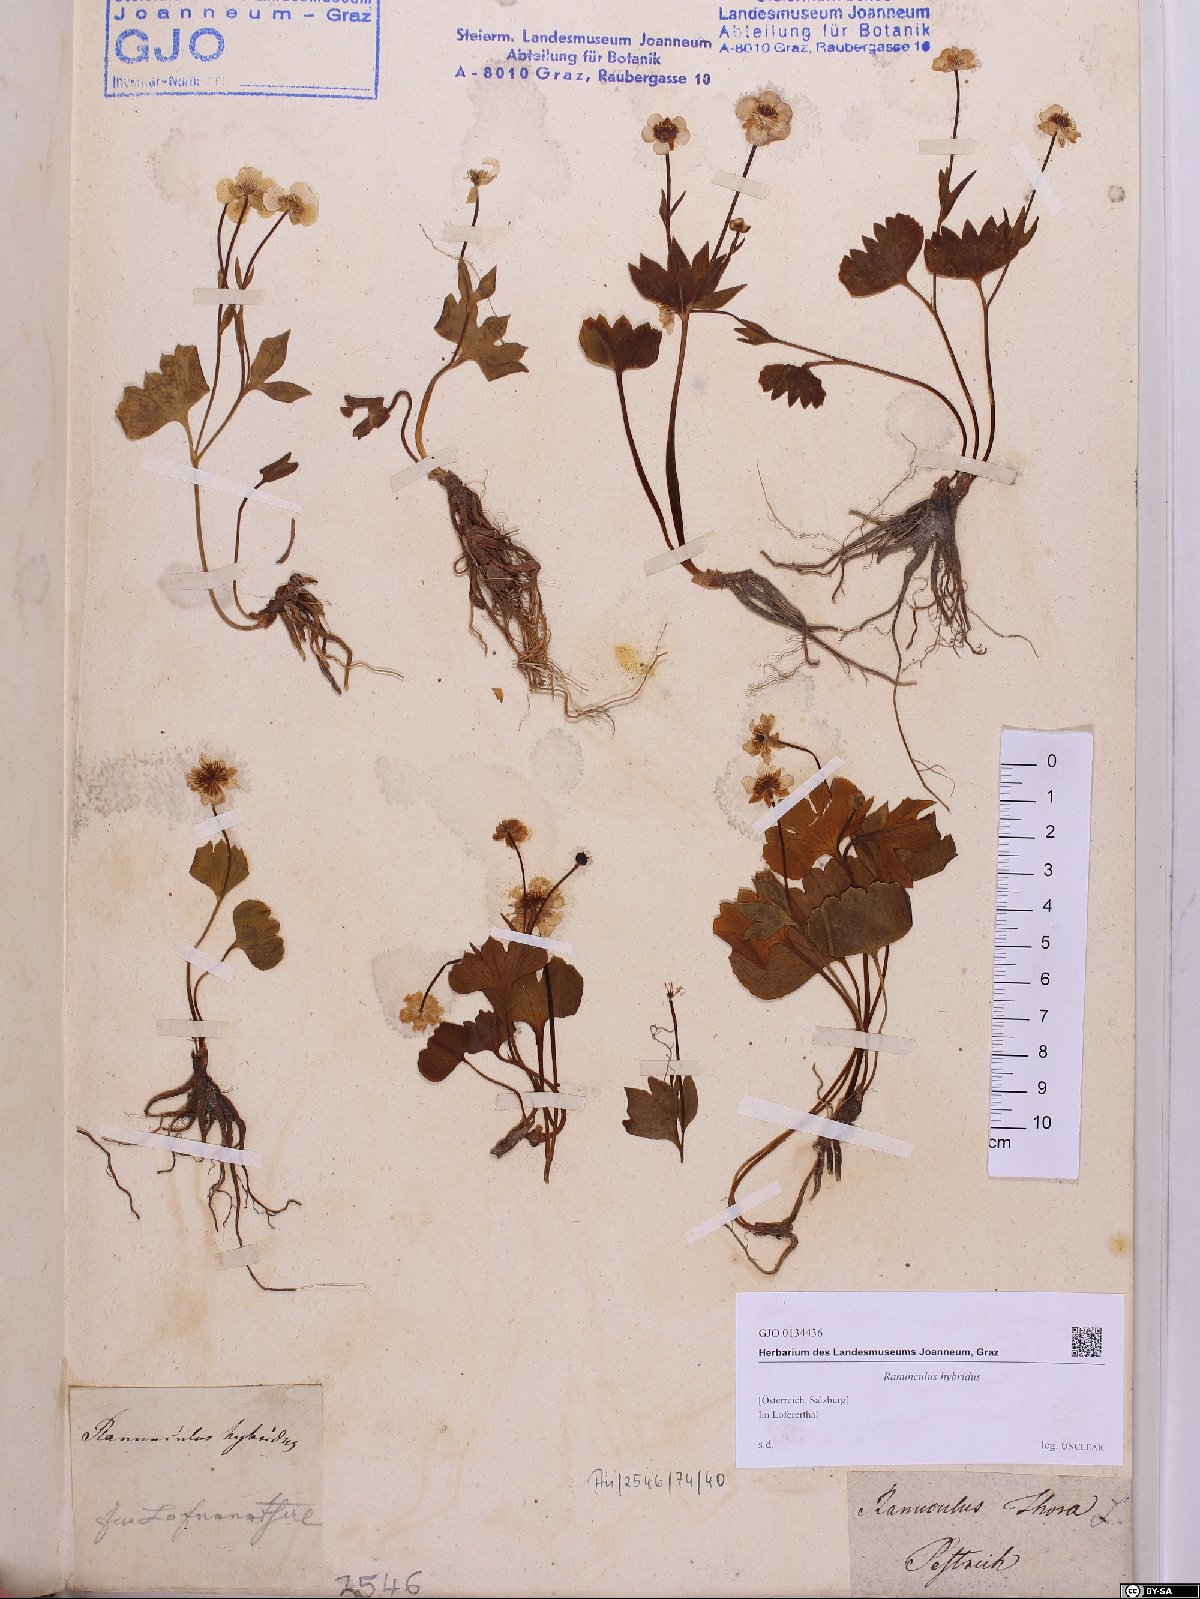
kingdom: Plantae
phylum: Tracheophyta
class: Magnoliopsida
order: Ranunculales
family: Ranunculaceae
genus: Ranunculus
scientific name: Ranunculus hybridus
